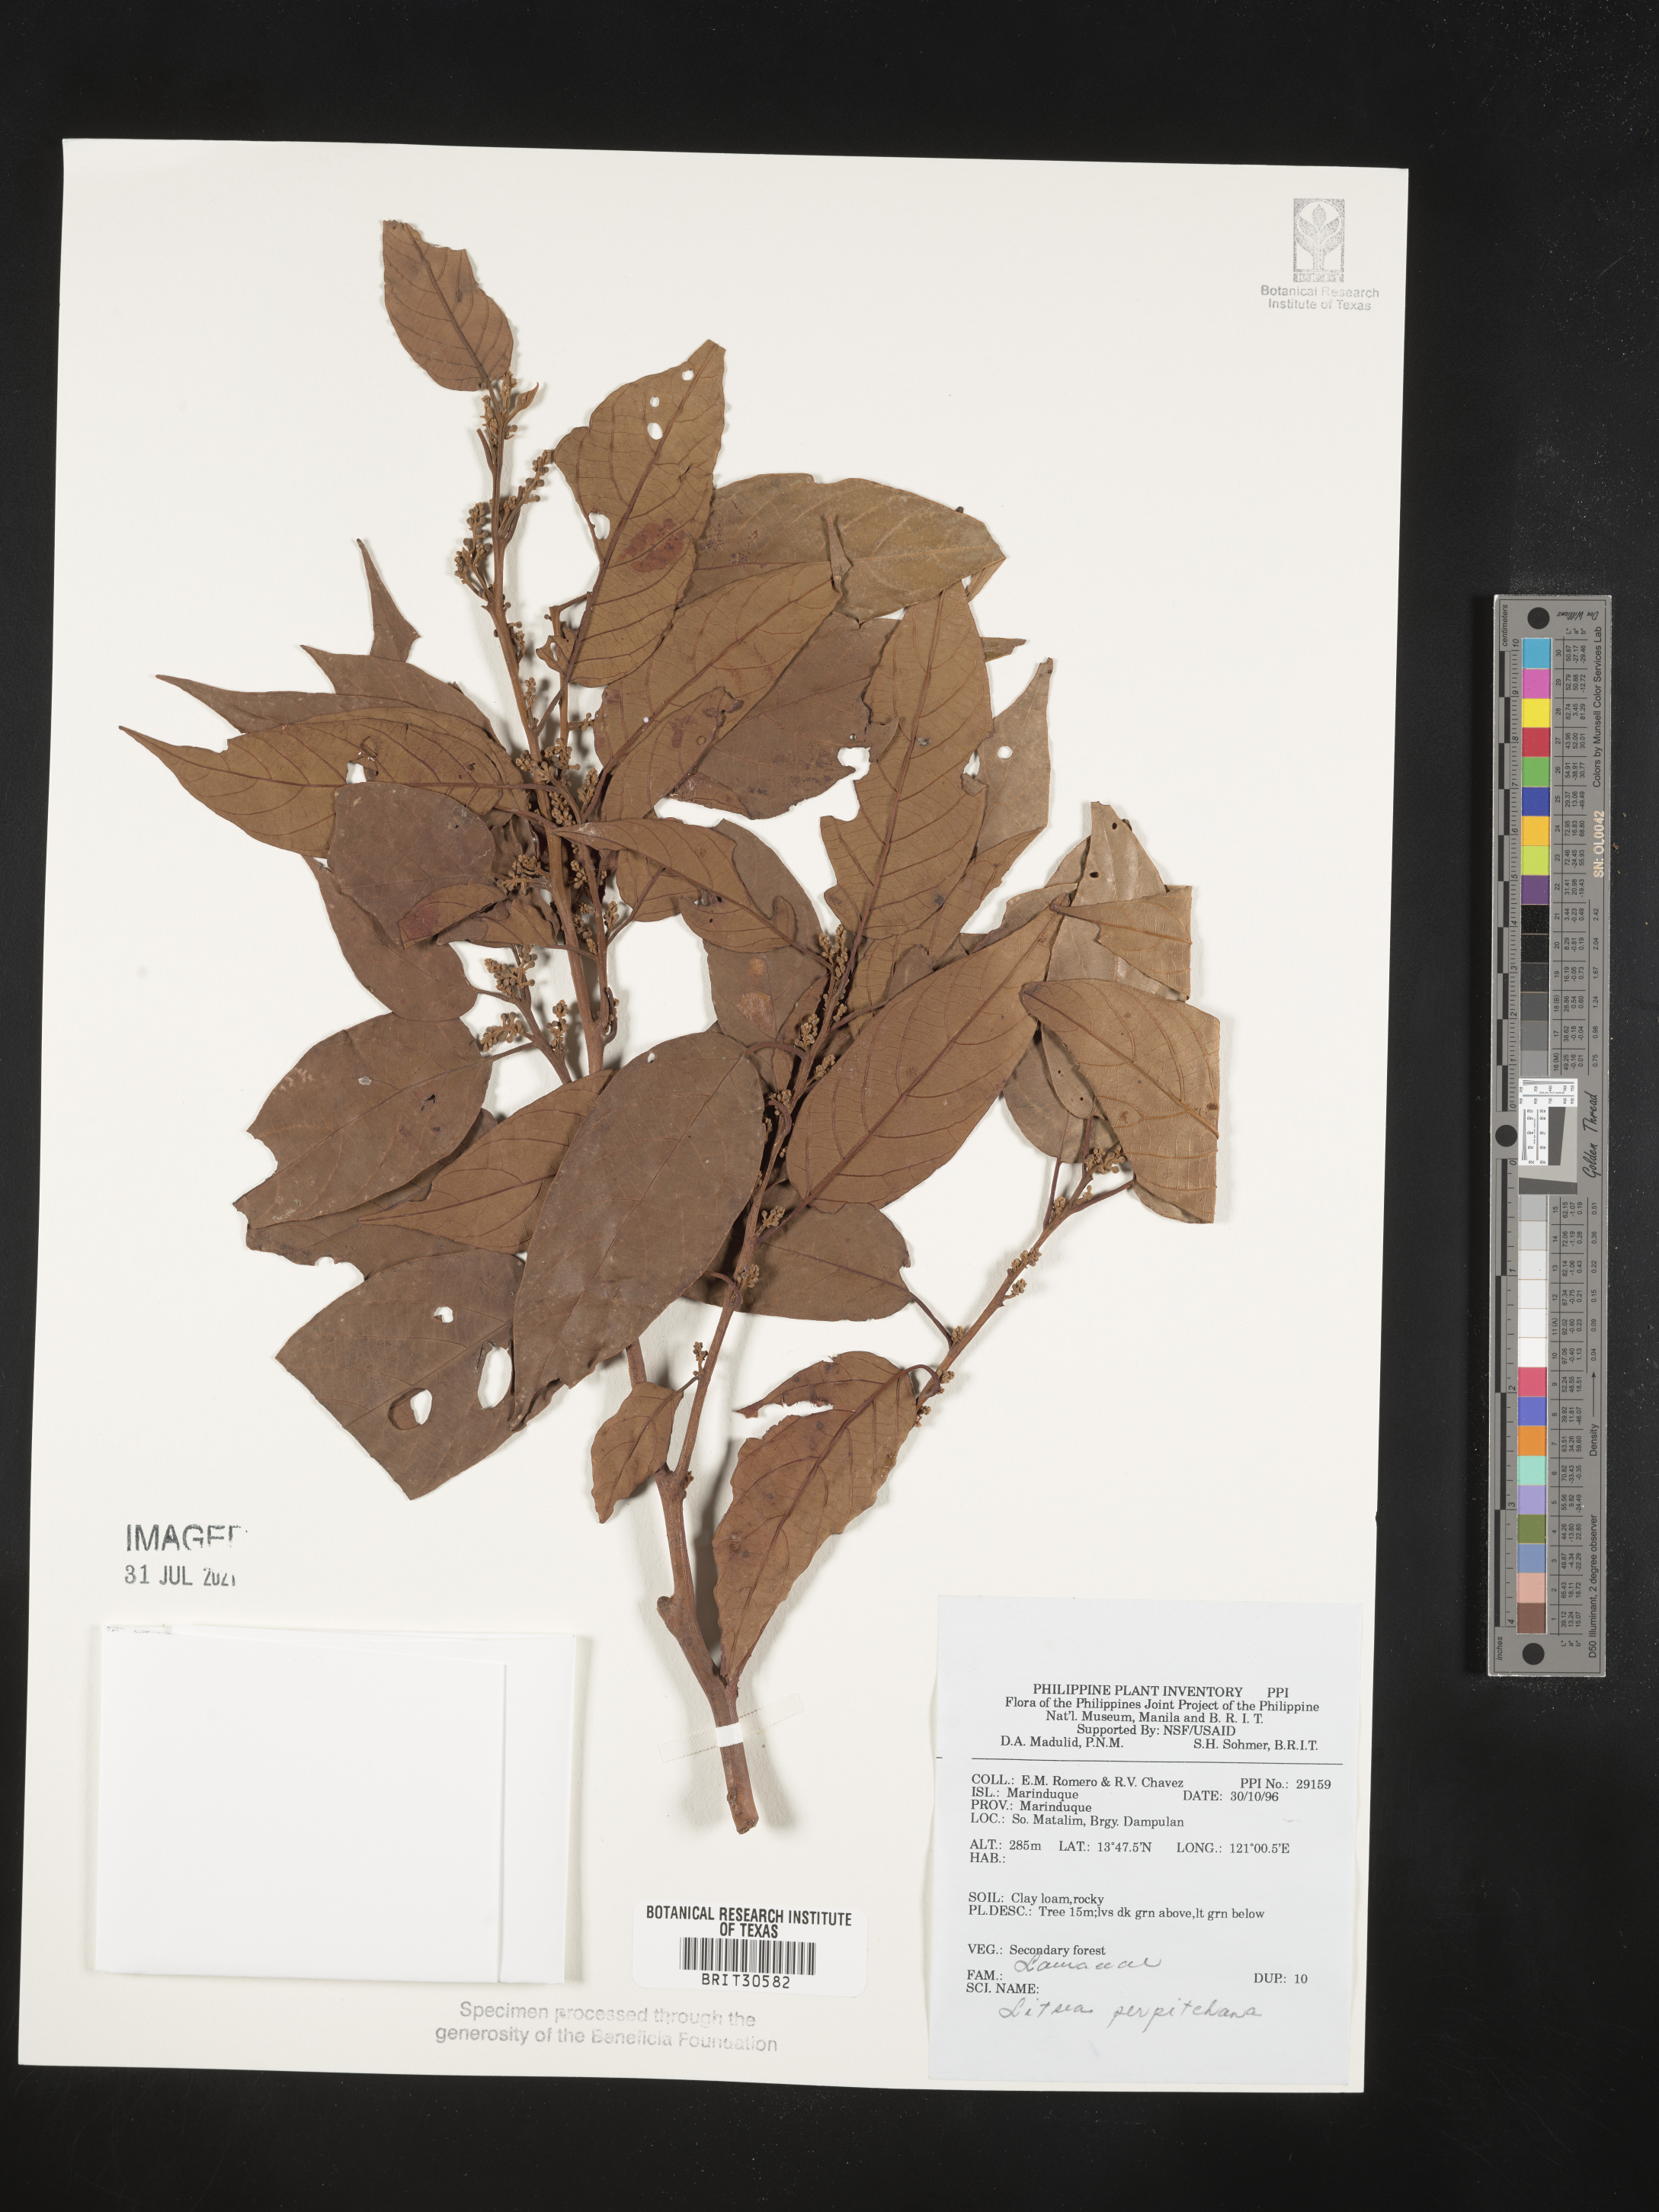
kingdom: Plantae
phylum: Tracheophyta
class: Magnoliopsida
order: Laurales
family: Lauraceae
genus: Litsea
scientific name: Litsea
